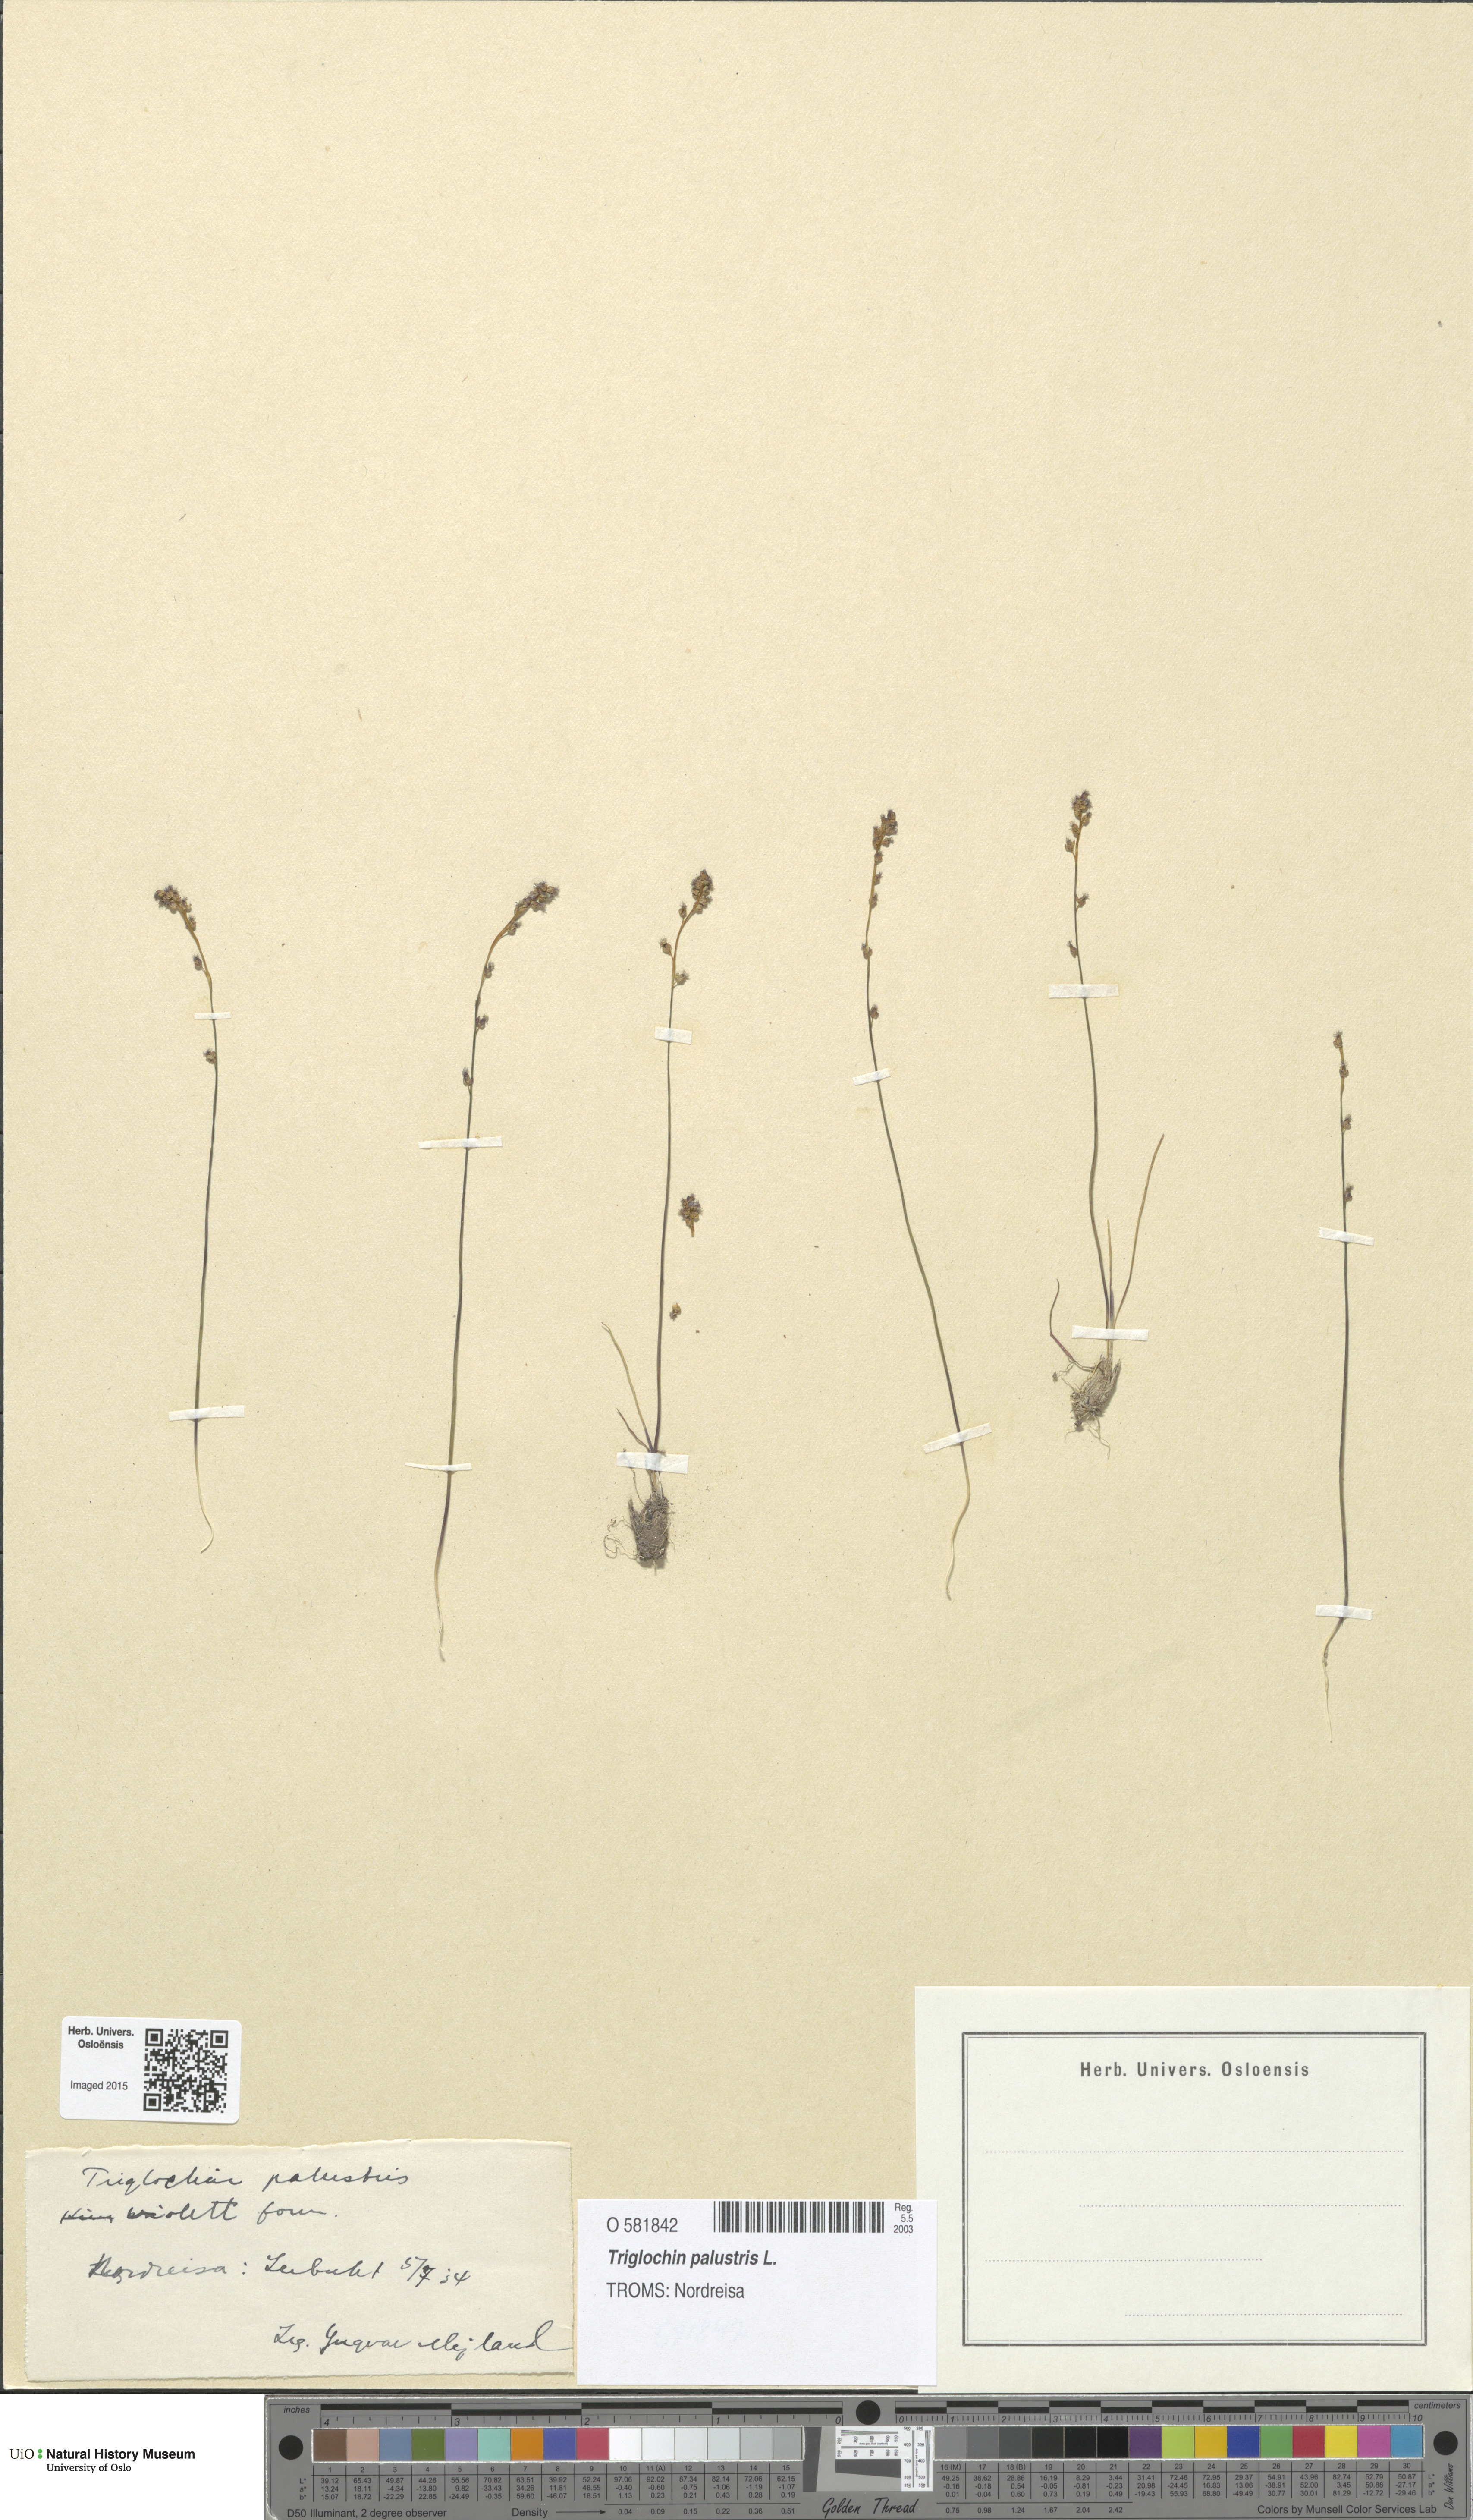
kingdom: Plantae
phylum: Tracheophyta
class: Liliopsida
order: Alismatales
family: Juncaginaceae
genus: Triglochin
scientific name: Triglochin palustris
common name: Marsh arrowgrass
